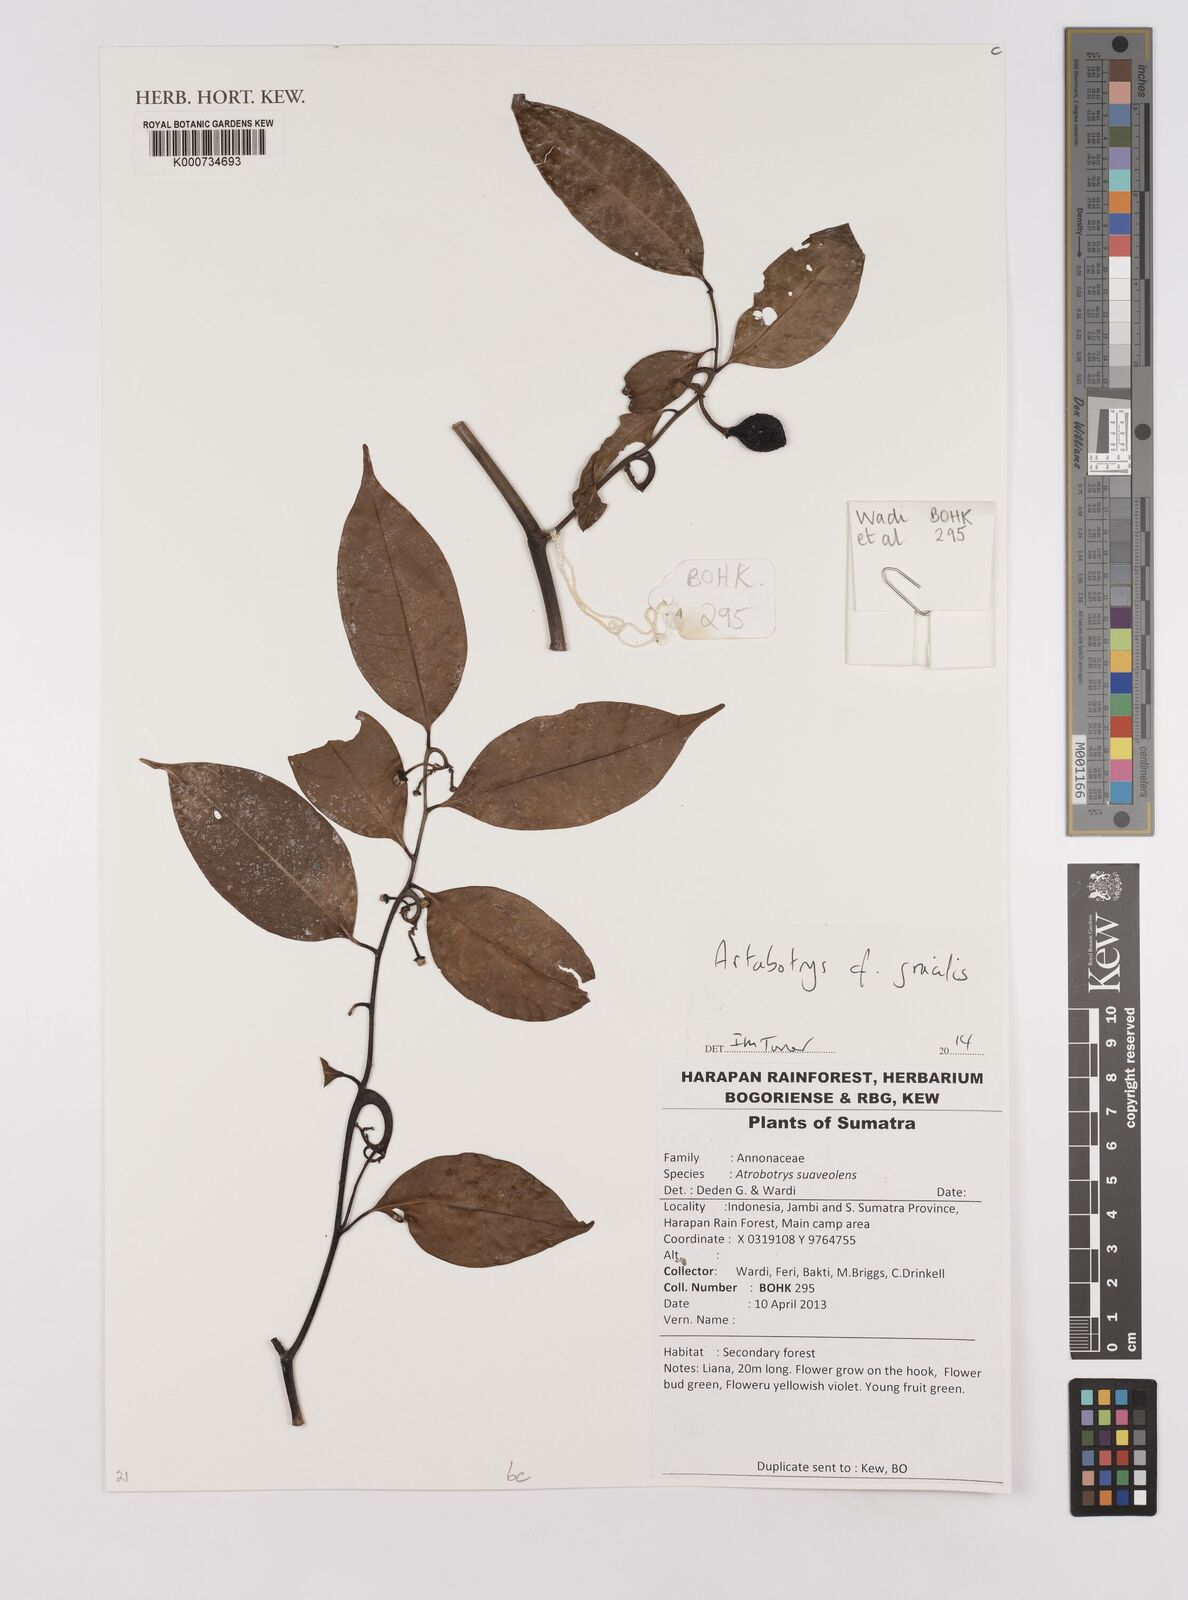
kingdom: Plantae
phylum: Tracheophyta
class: Magnoliopsida
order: Magnoliales
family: Annonaceae
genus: Artabotrys
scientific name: Artabotrys gracilis
